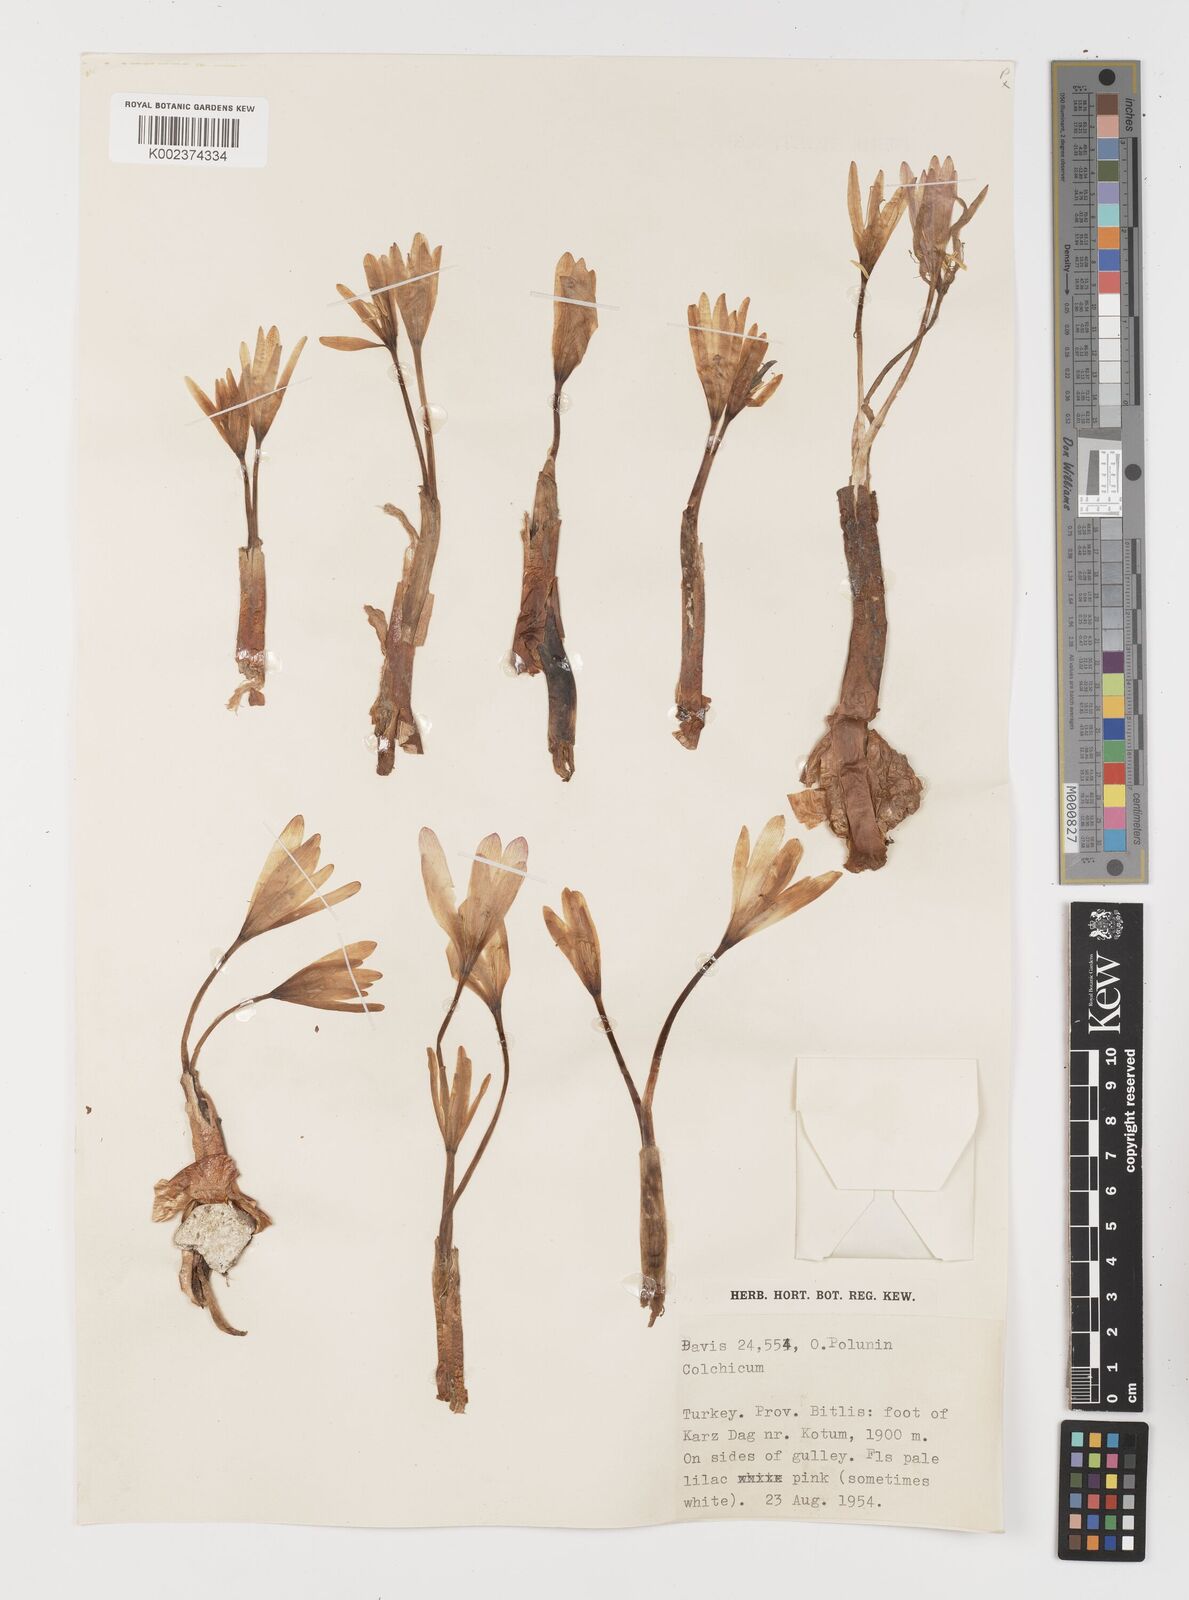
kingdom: Plantae
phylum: Tracheophyta
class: Liliopsida
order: Liliales
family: Colchicaceae
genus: Colchicum
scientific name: Colchicum
